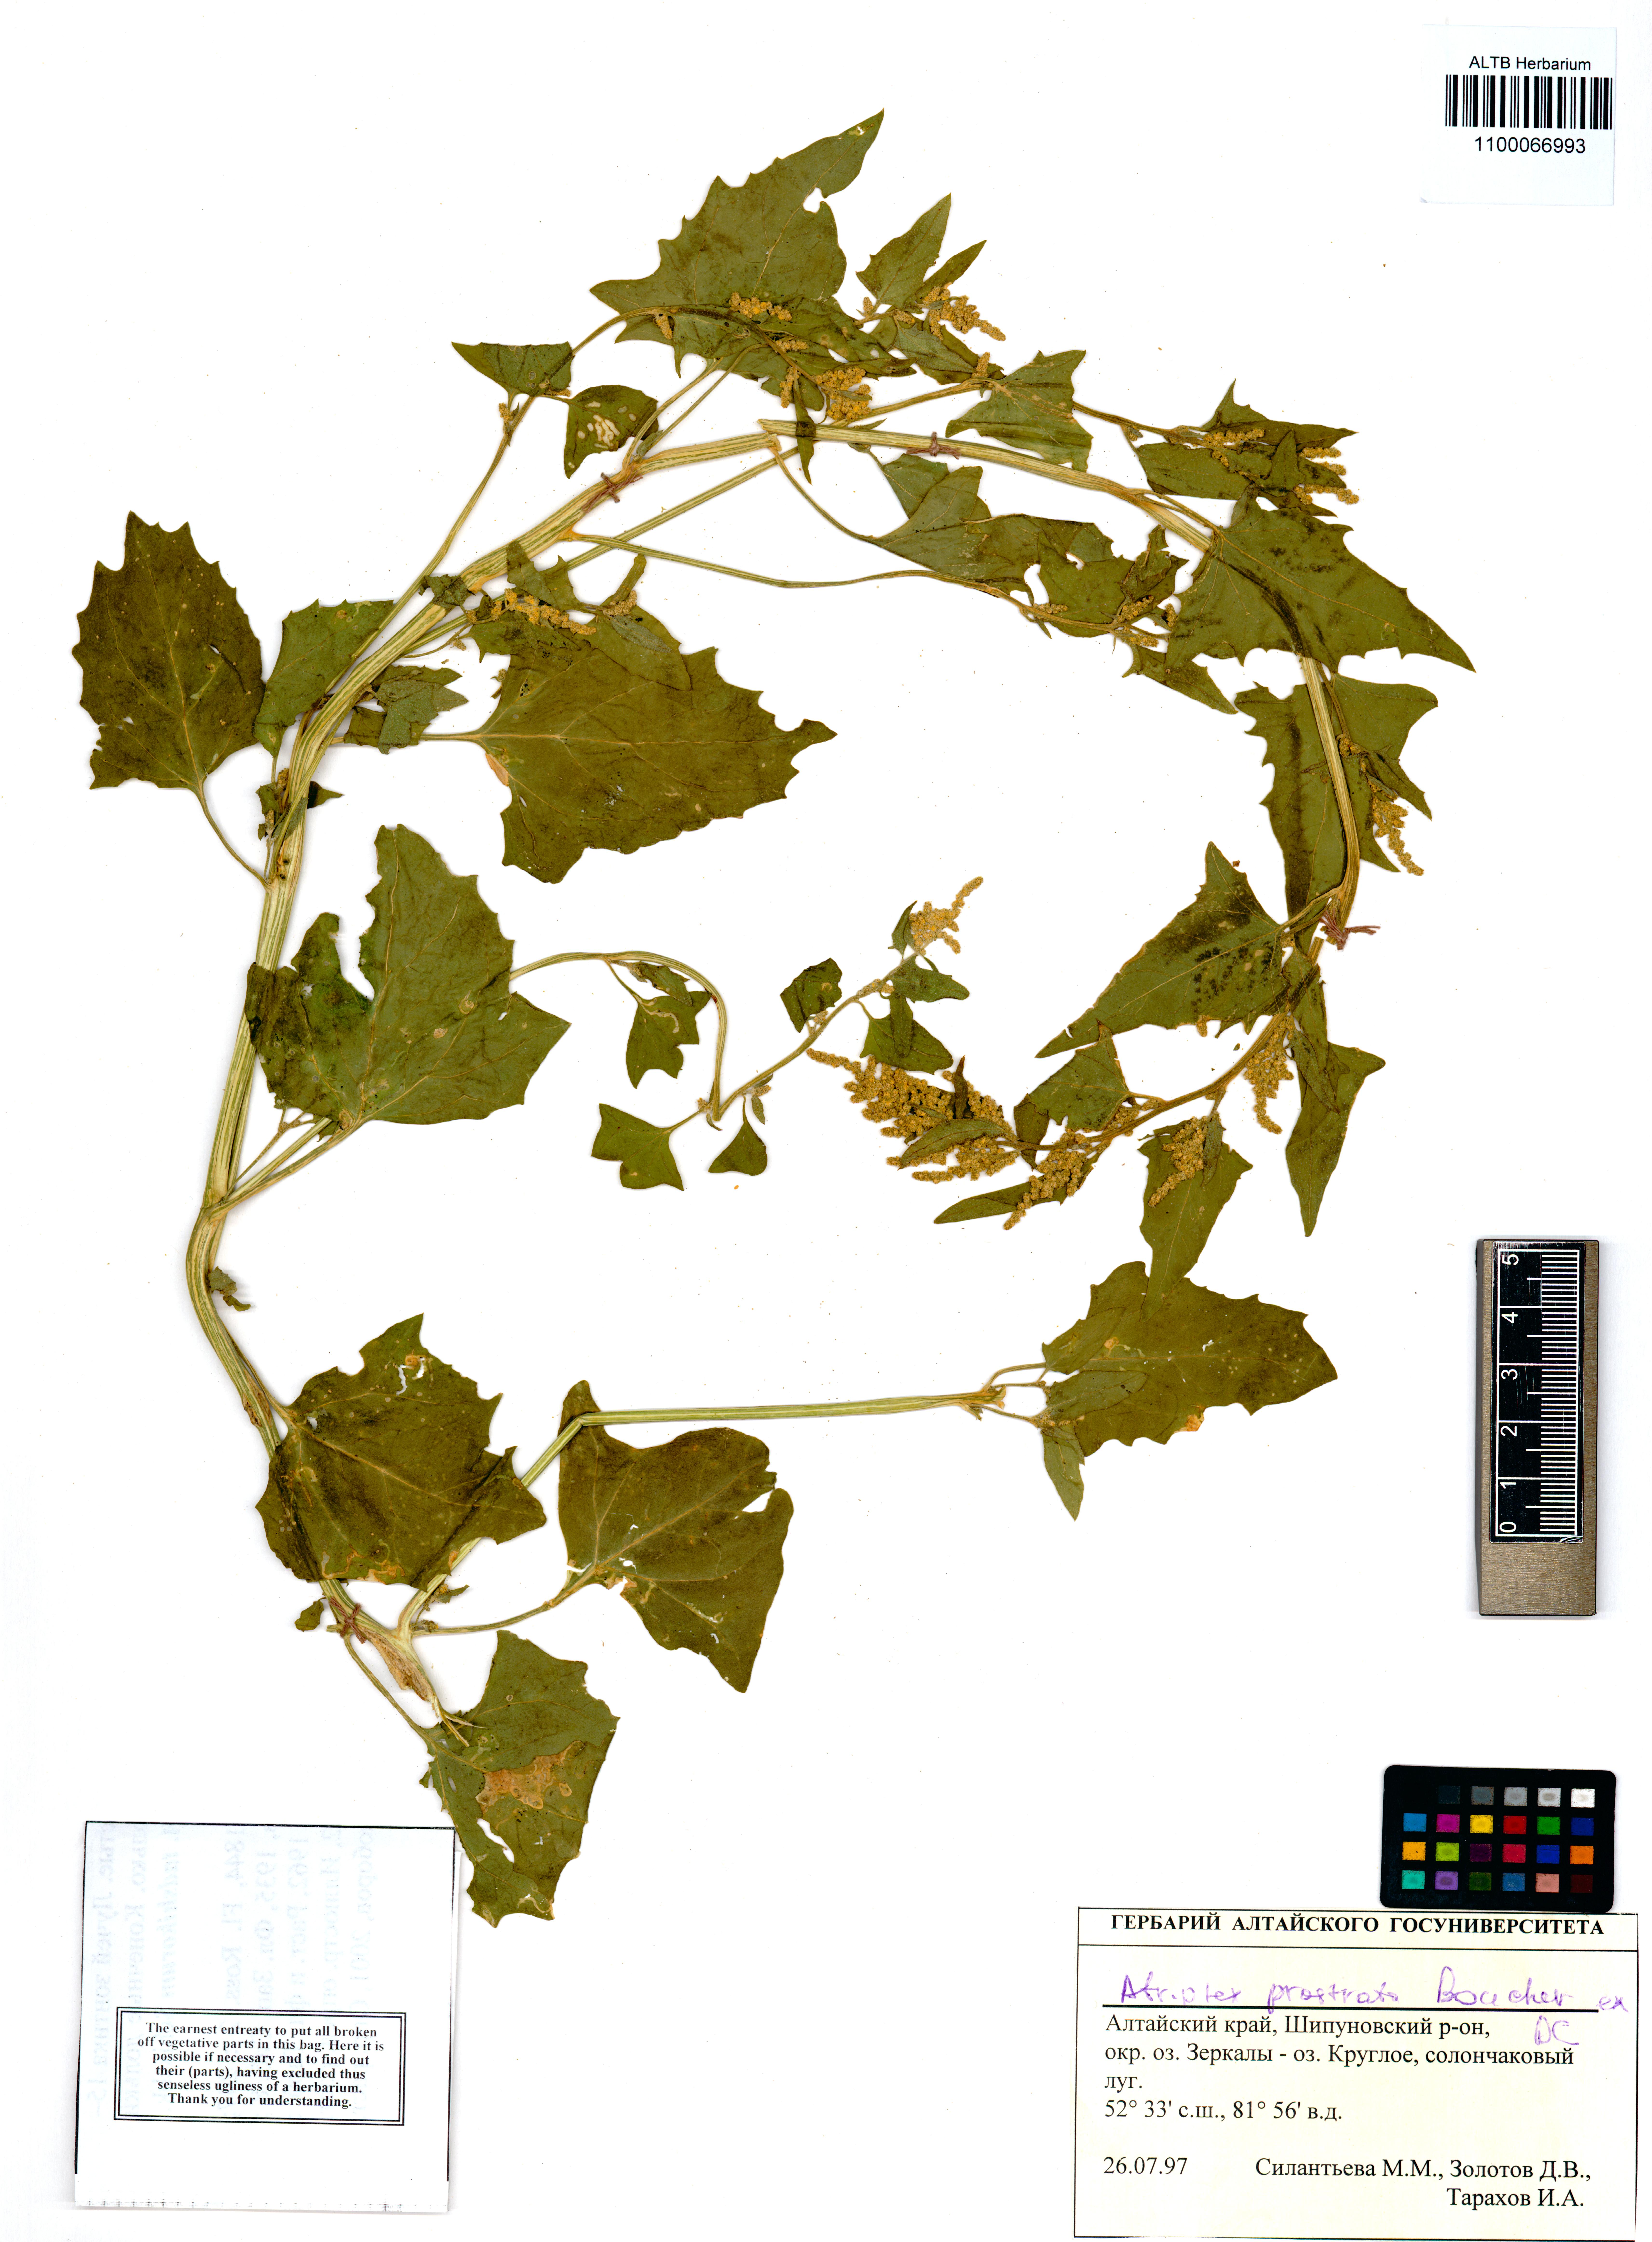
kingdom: Plantae
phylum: Tracheophyta
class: Magnoliopsida
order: Caryophyllales
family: Amaranthaceae
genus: Atriplex
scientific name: Atriplex prostrata
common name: Spear-leaved orache
